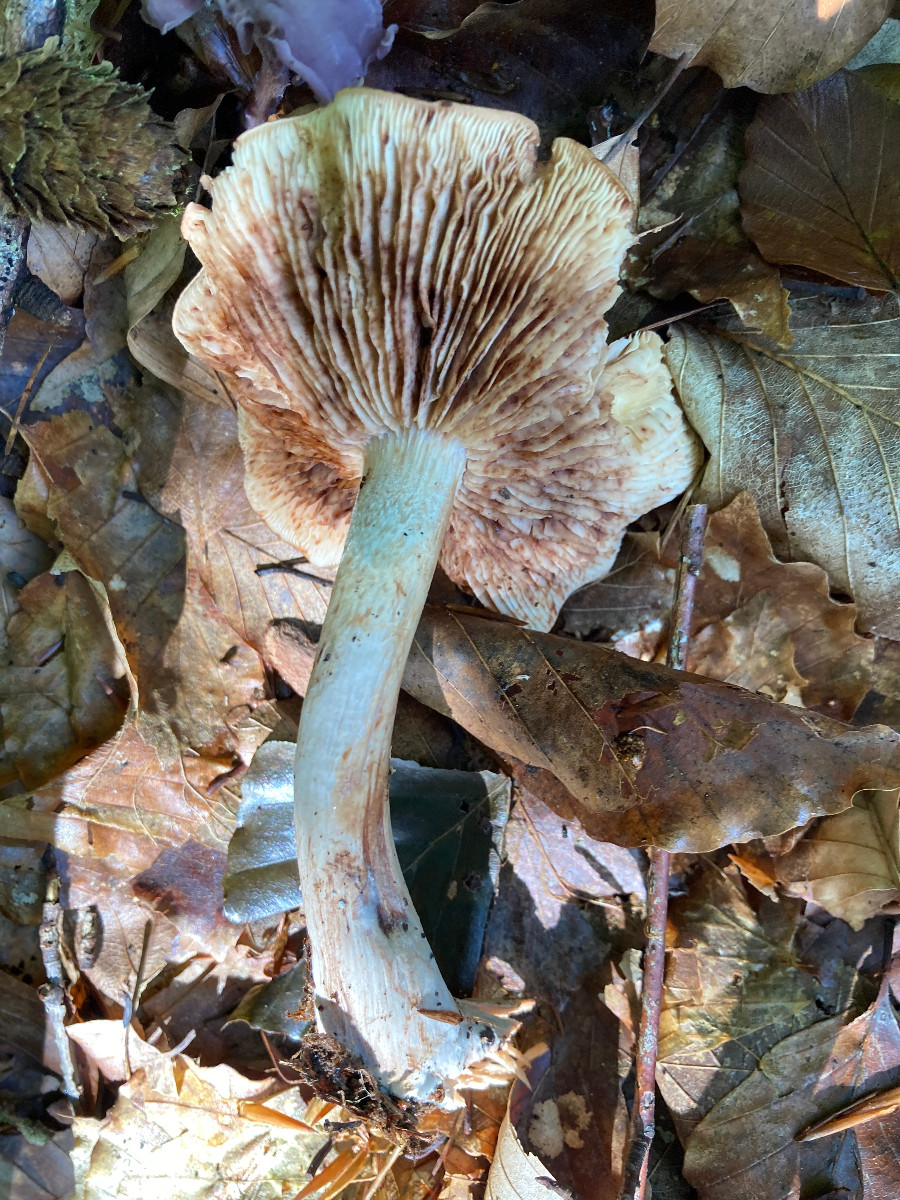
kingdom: Fungi
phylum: Basidiomycota
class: Agaricomycetes
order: Agaricales
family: Tricholomataceae
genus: Tricholoma
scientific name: Tricholoma ustale
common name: sveden ridderhat
